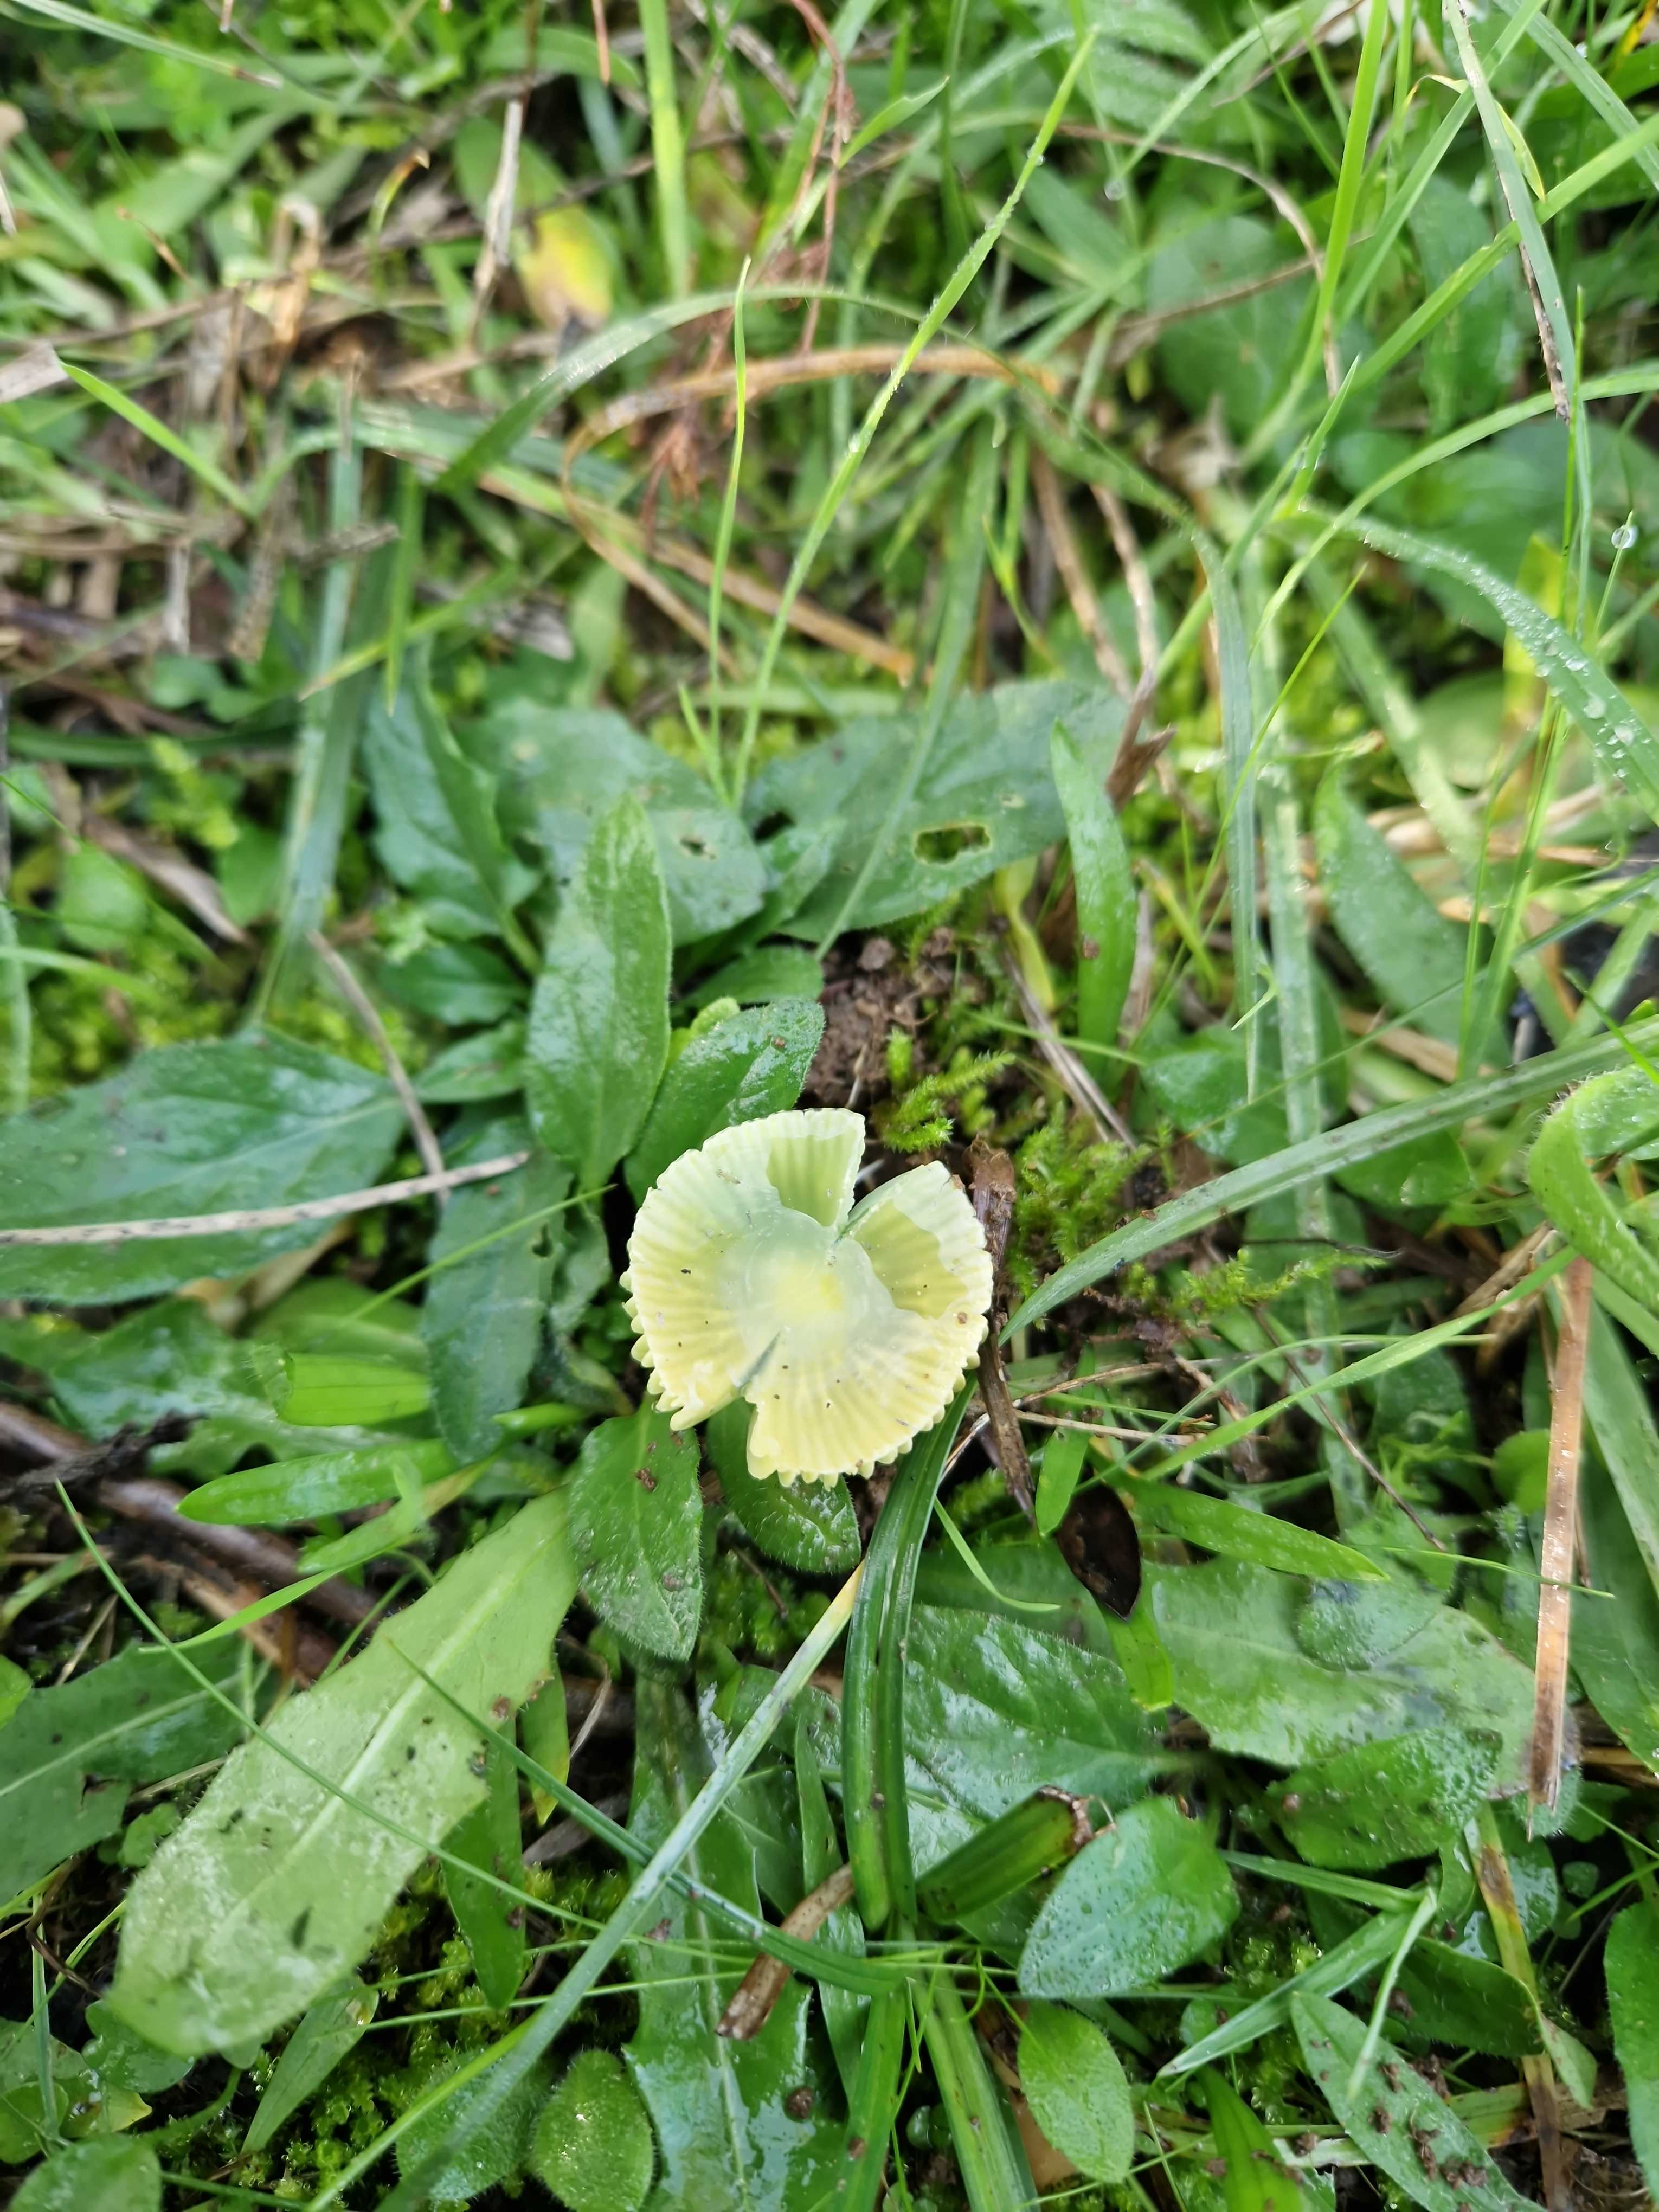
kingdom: Fungi
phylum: Basidiomycota
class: Agaricomycetes
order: Agaricales
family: Hygrophoraceae
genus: Gliophorus
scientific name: Gliophorus psittacinus
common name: papegøje-vokshat
